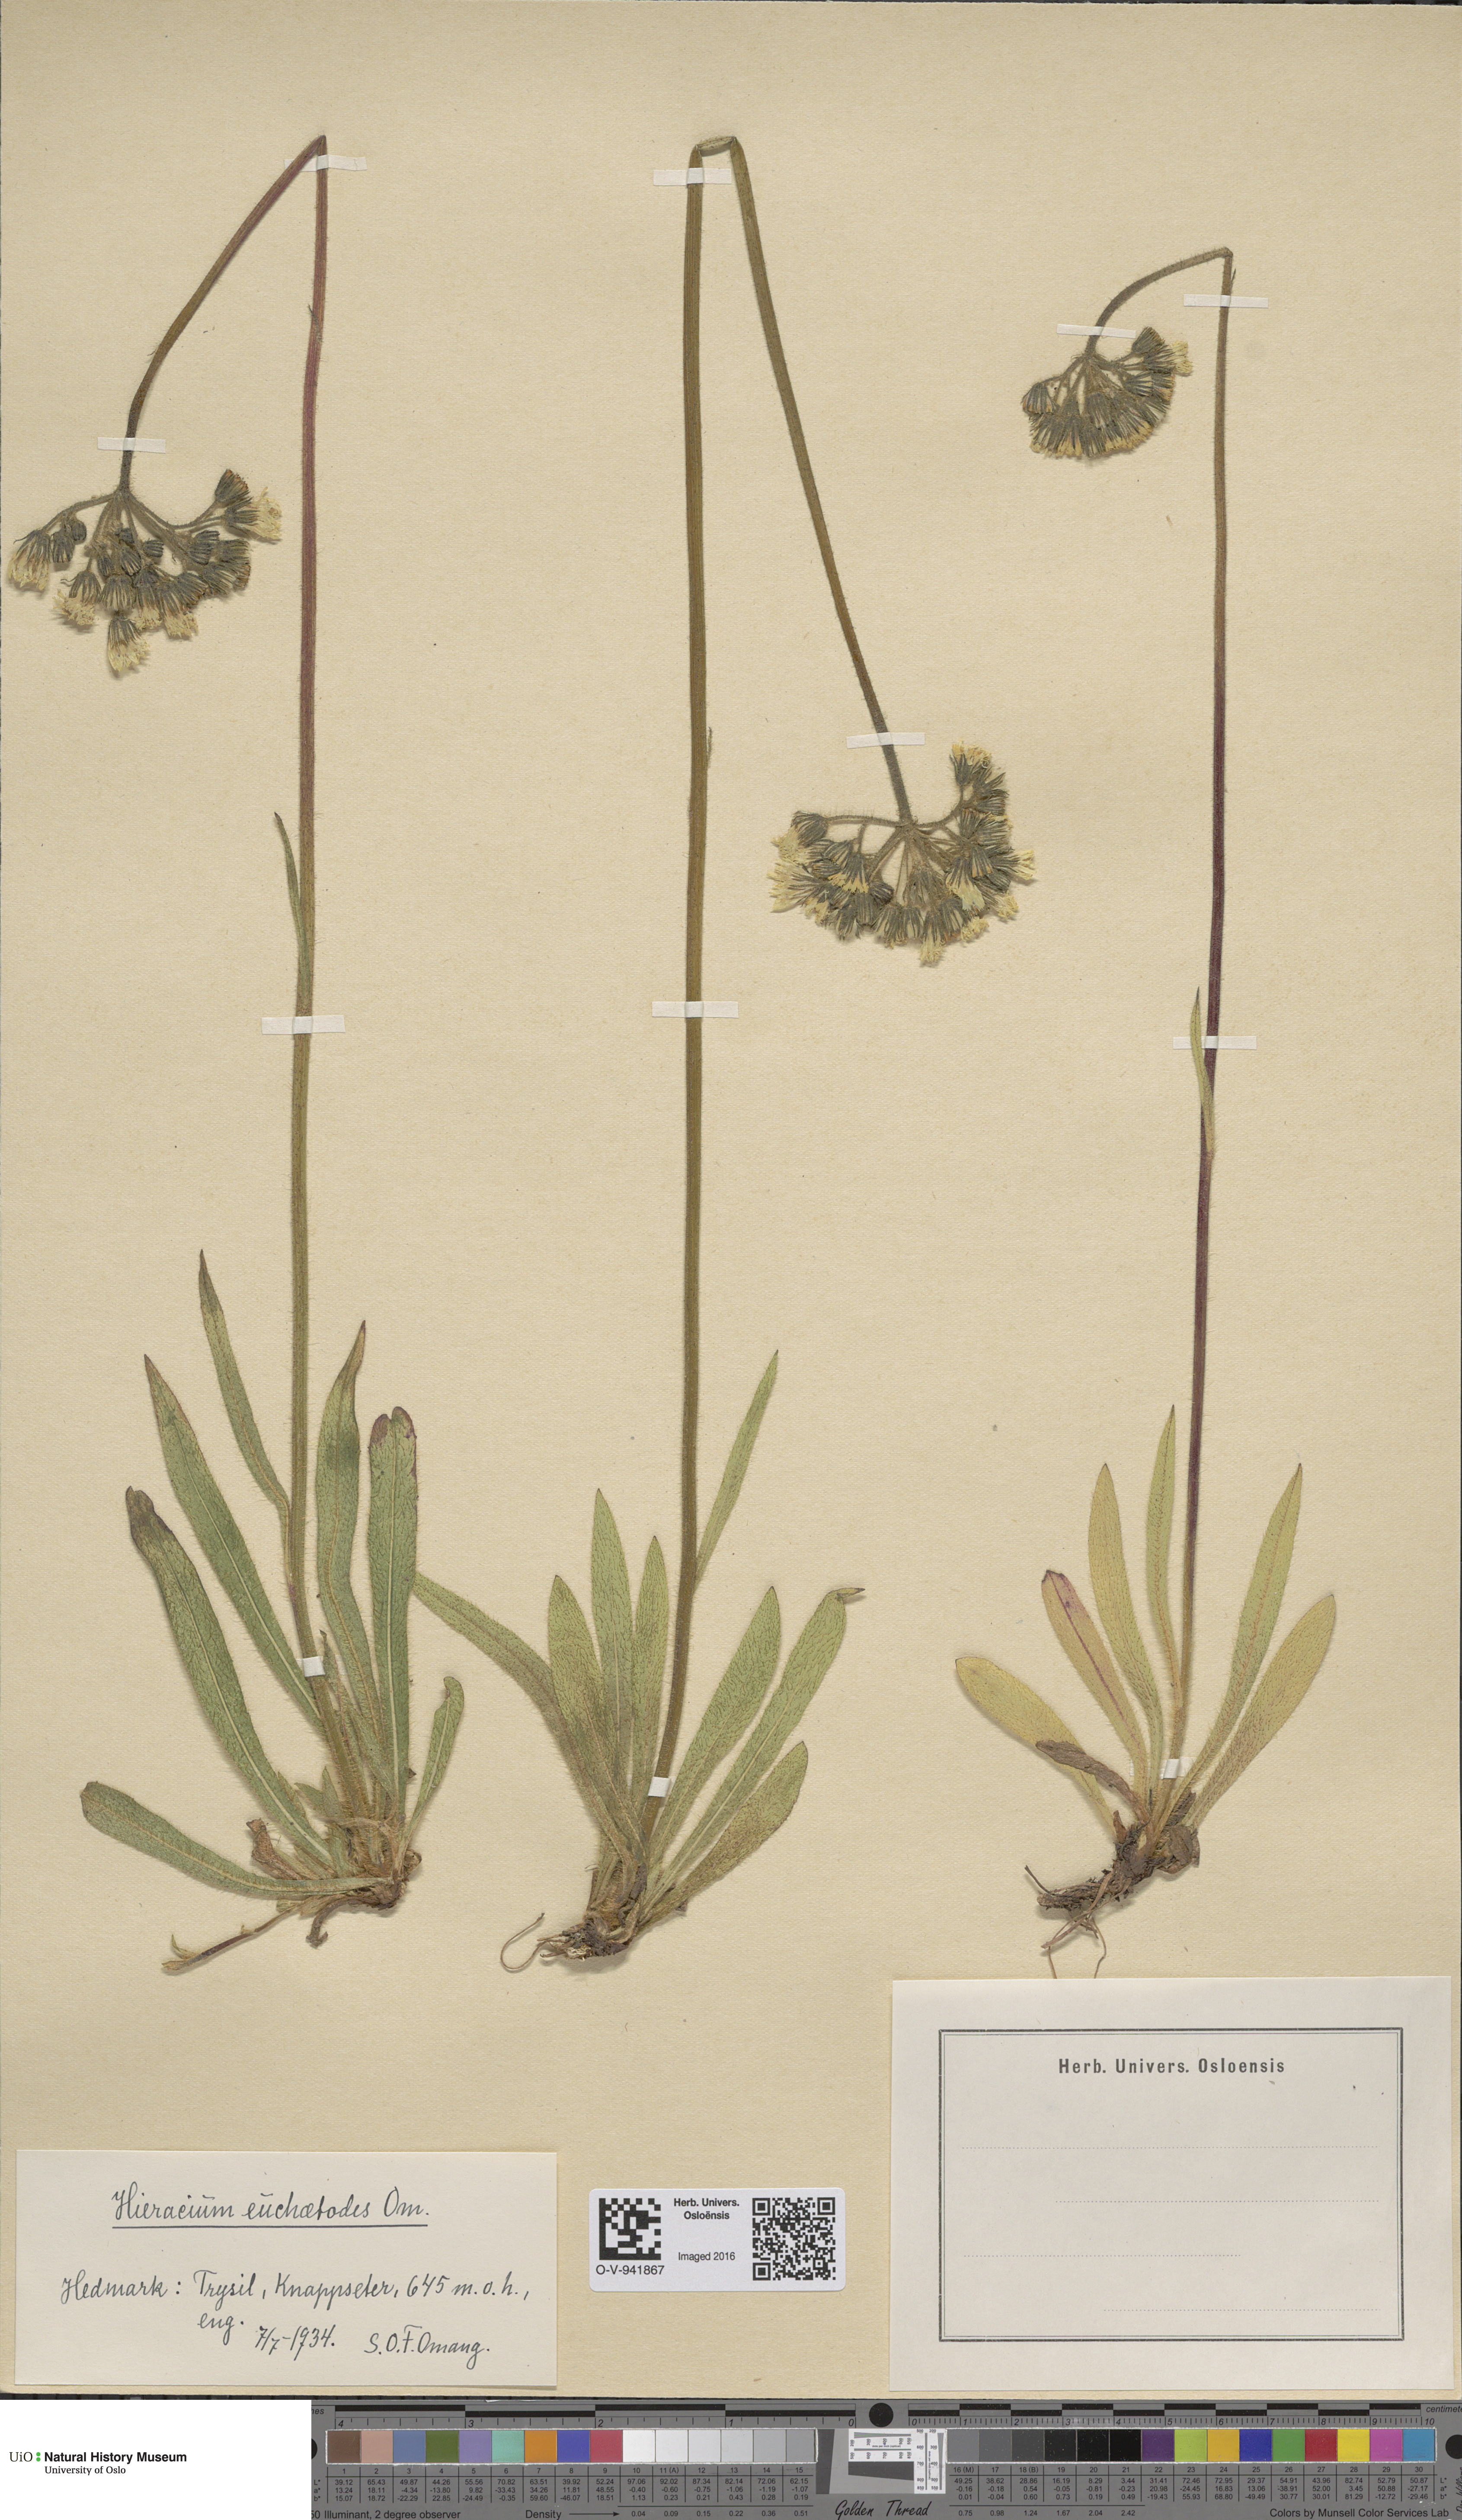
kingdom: Plantae
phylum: Tracheophyta
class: Magnoliopsida
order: Asterales
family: Asteraceae
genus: Pilosella
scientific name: Pilosella glomerata
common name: Queen devil hawkweed
